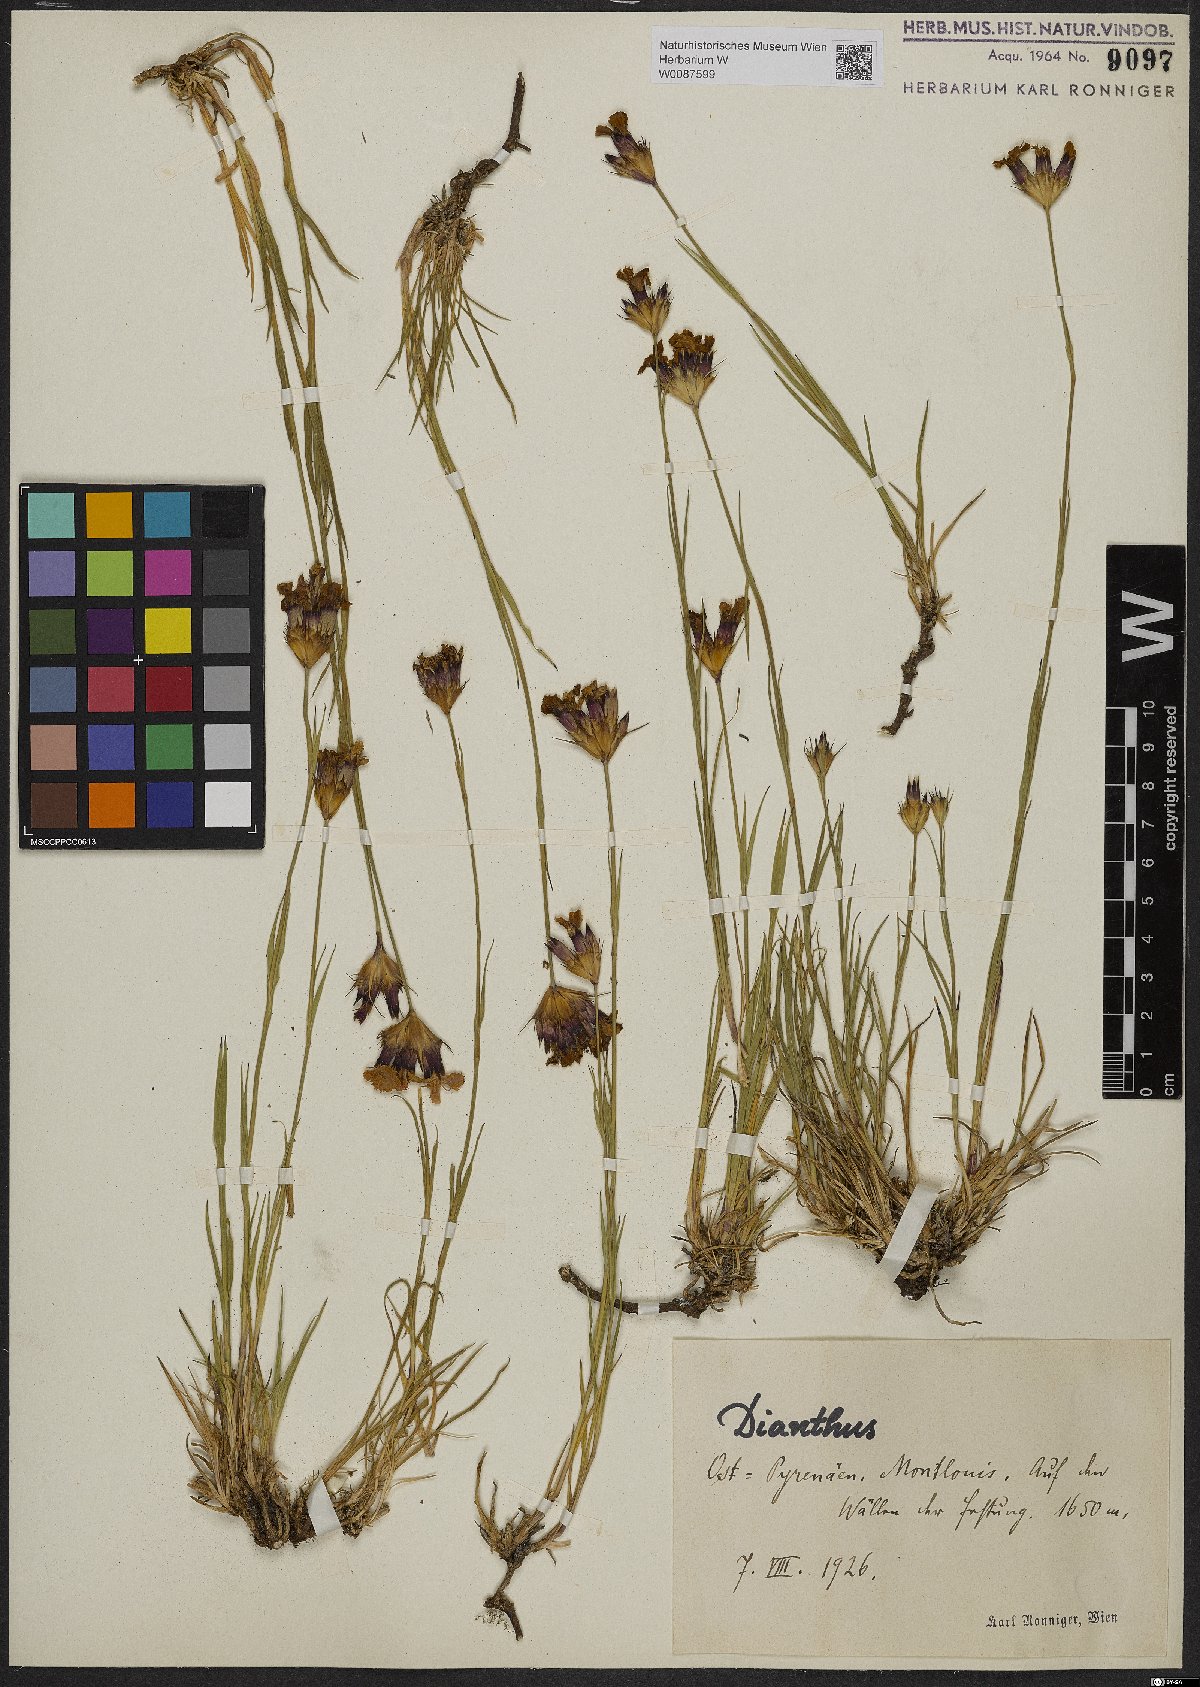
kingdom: Plantae
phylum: Tracheophyta
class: Magnoliopsida
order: Caryophyllales
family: Caryophyllaceae
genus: Dianthus
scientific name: Dianthus
